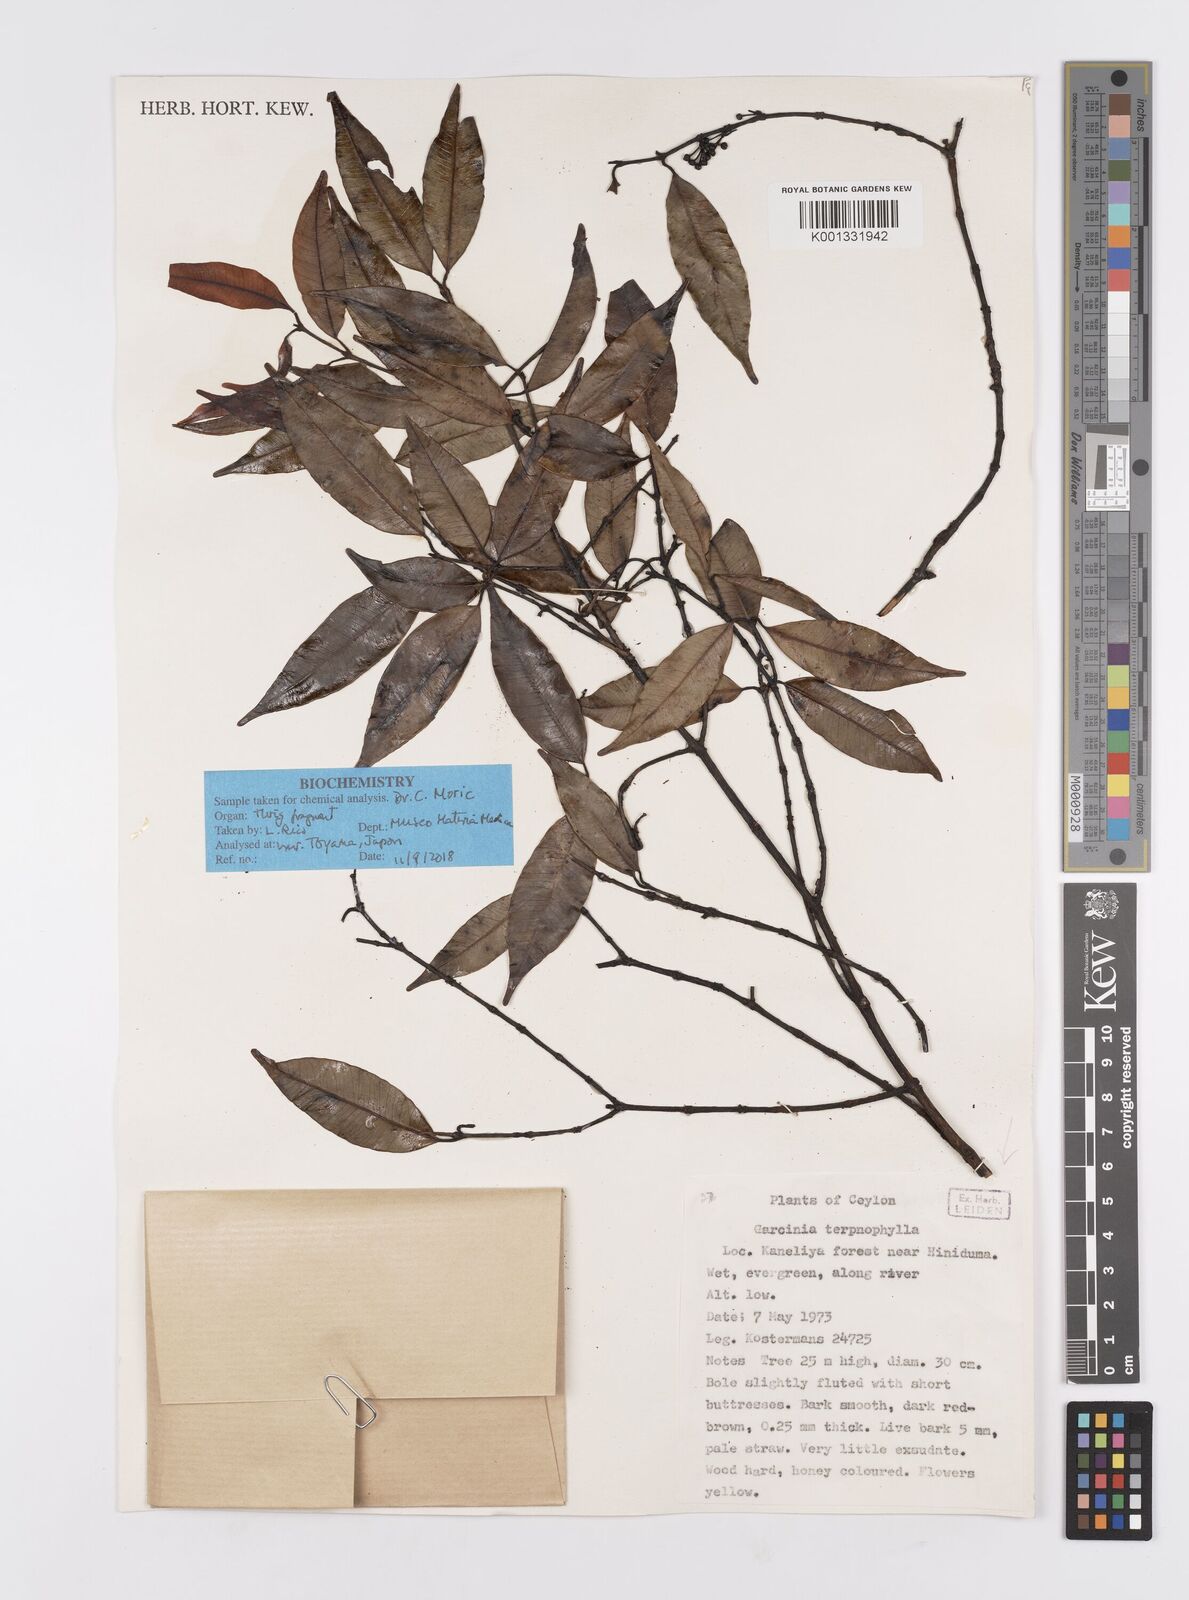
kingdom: Plantae
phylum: Tracheophyta
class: Magnoliopsida
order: Malpighiales
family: Clusiaceae
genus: Garcinia
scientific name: Garcinia terpnophylla
